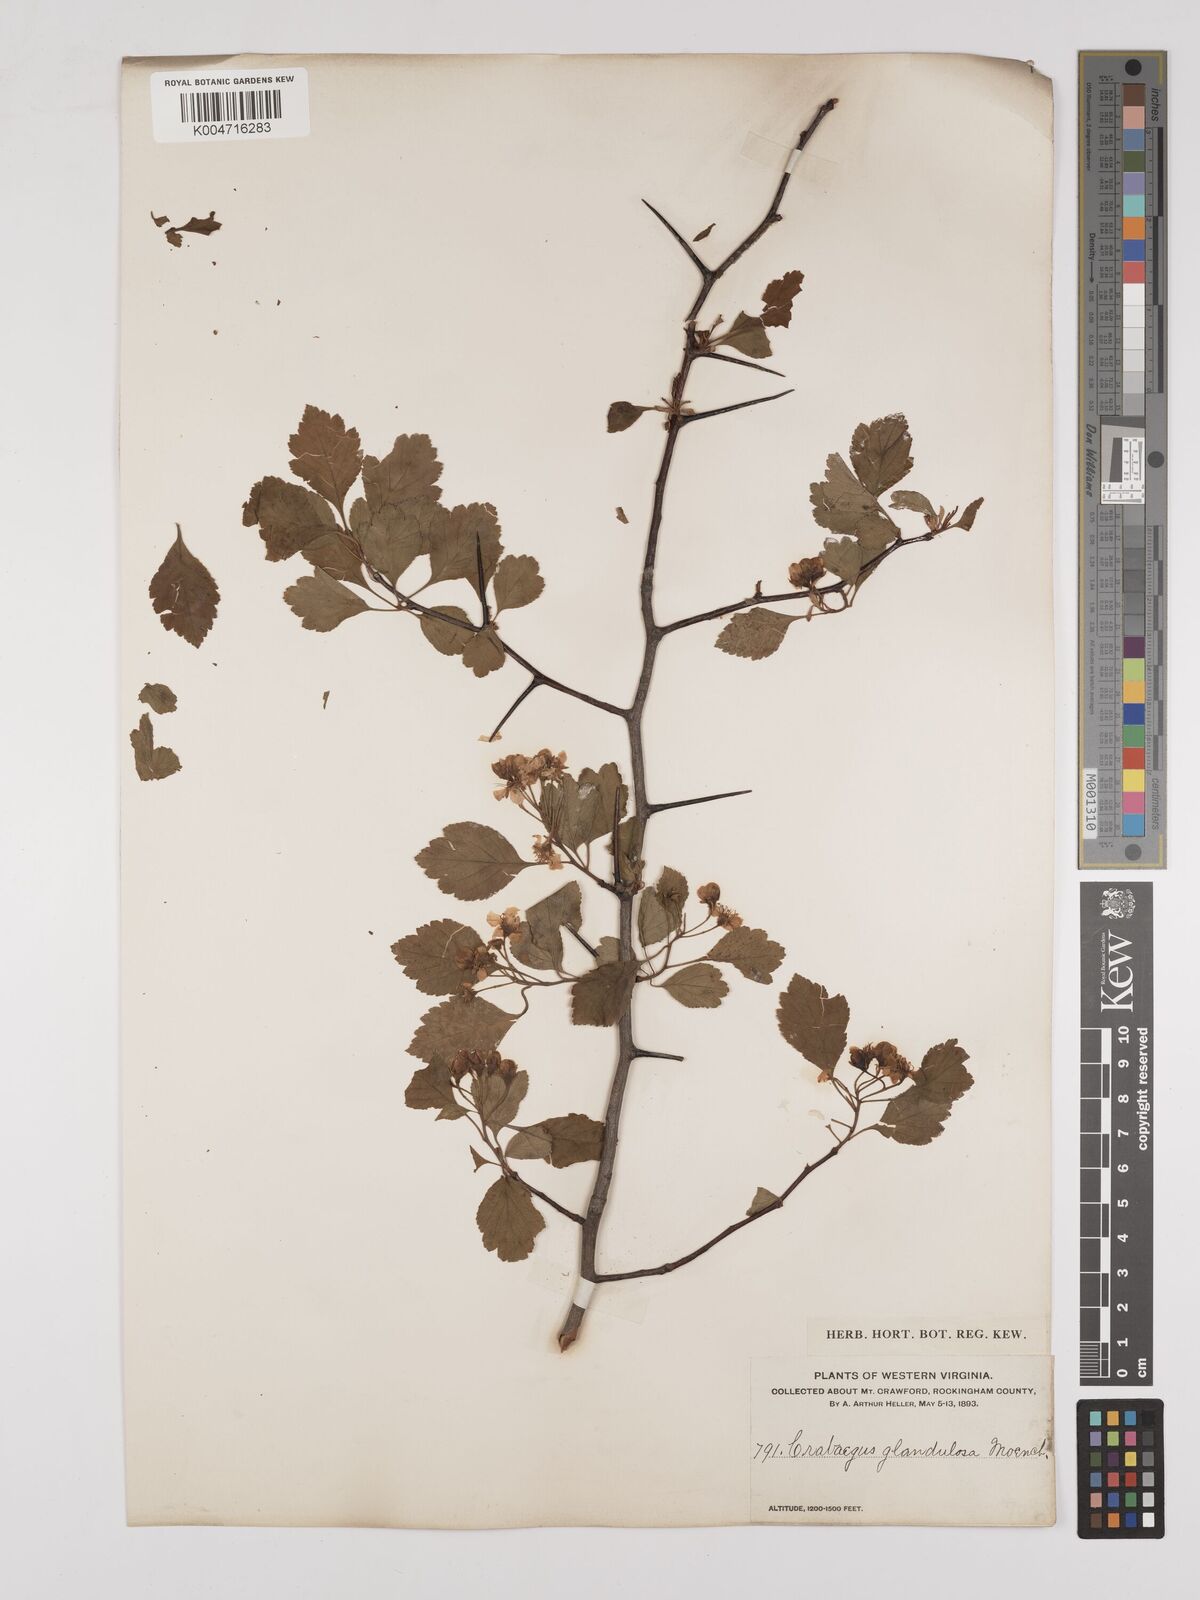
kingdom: Plantae
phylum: Tracheophyta
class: Magnoliopsida
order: Rosales
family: Rosaceae
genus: Crataegus
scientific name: Crataegus
